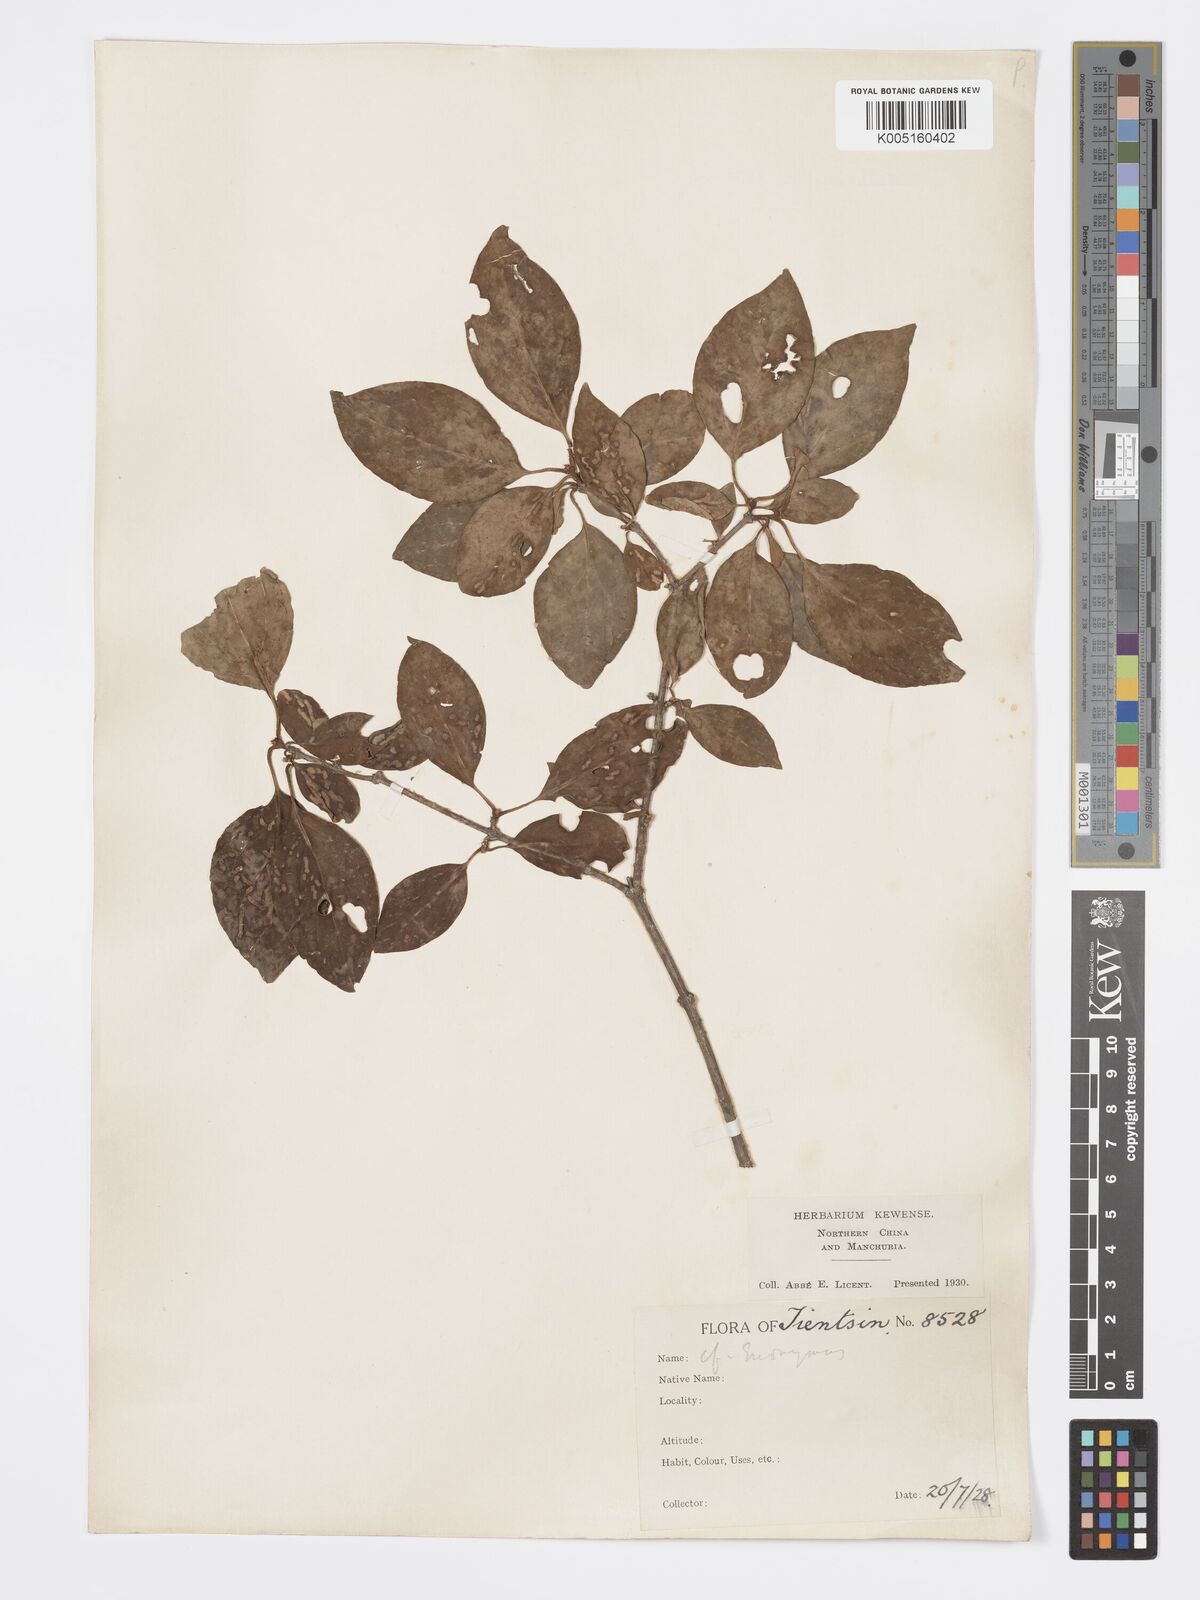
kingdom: Plantae
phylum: Tracheophyta
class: Magnoliopsida
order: Celastrales
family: Celastraceae
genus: Euonymus
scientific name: Euonymus
